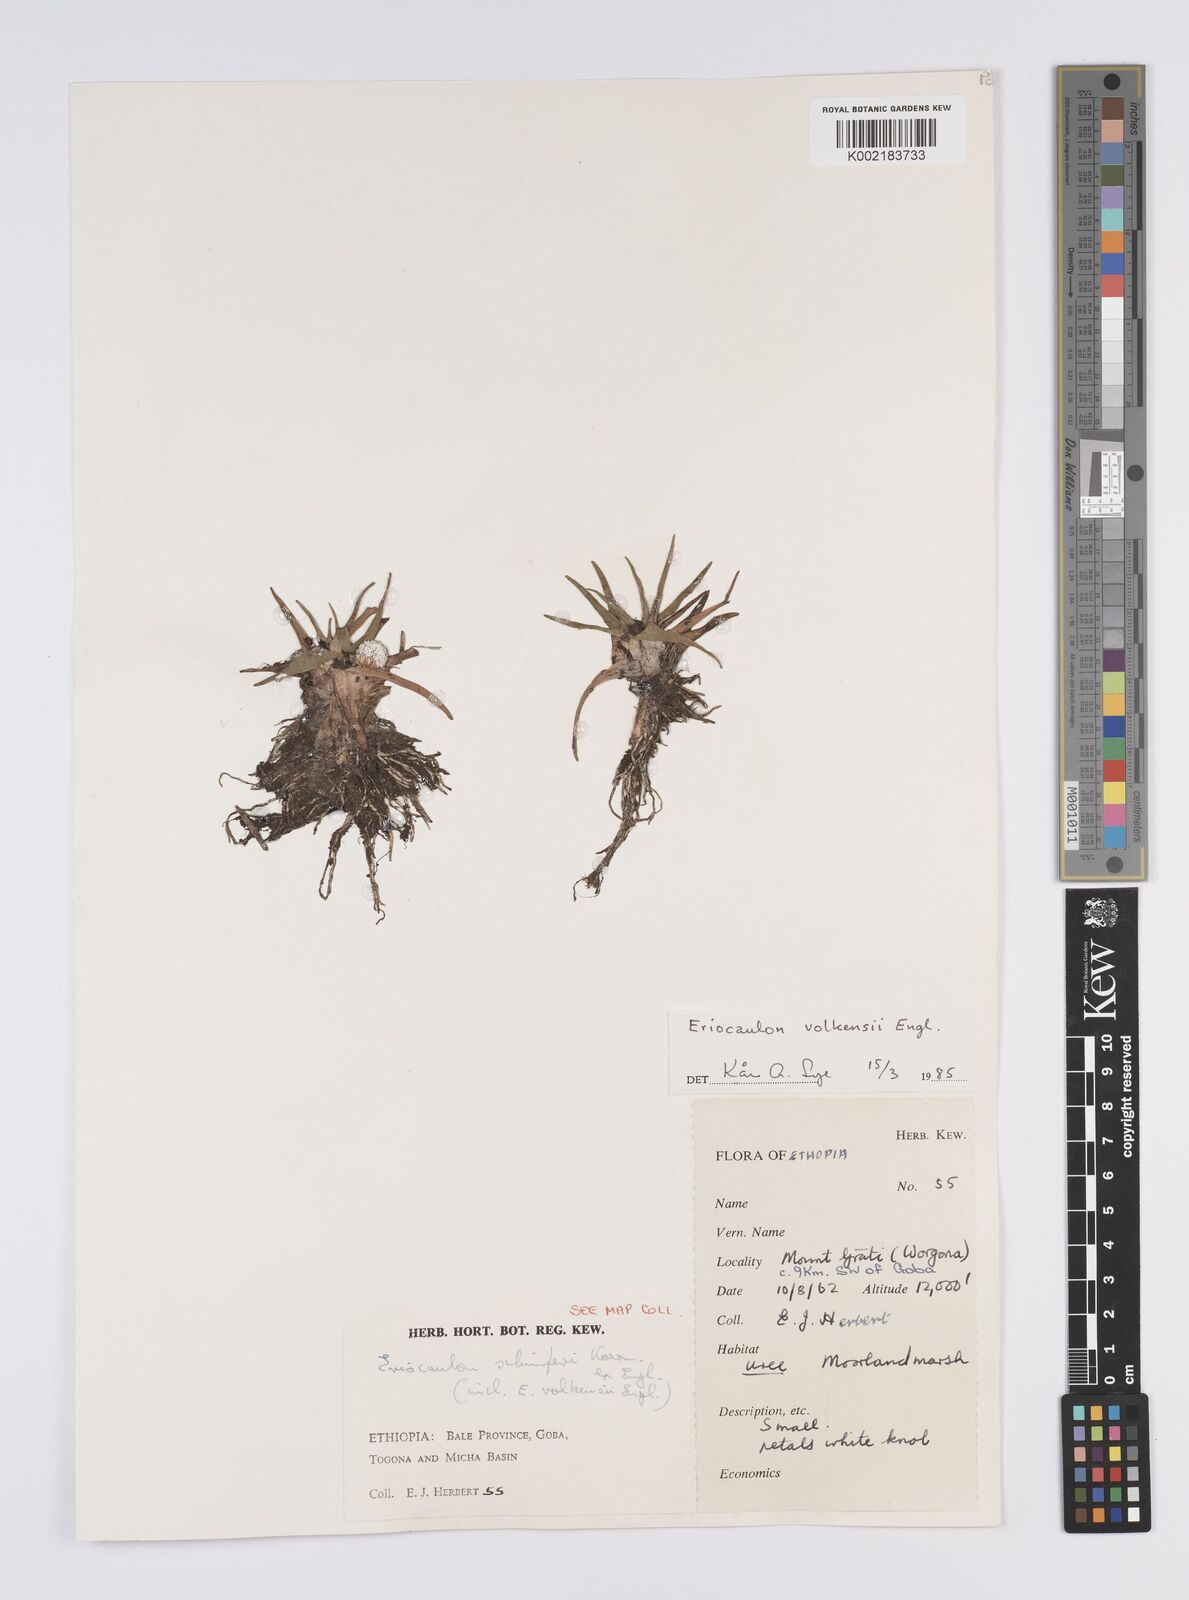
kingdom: Plantae
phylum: Tracheophyta
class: Liliopsida
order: Poales
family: Eriocaulaceae
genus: Eriocaulon
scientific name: Eriocaulon schimperi
